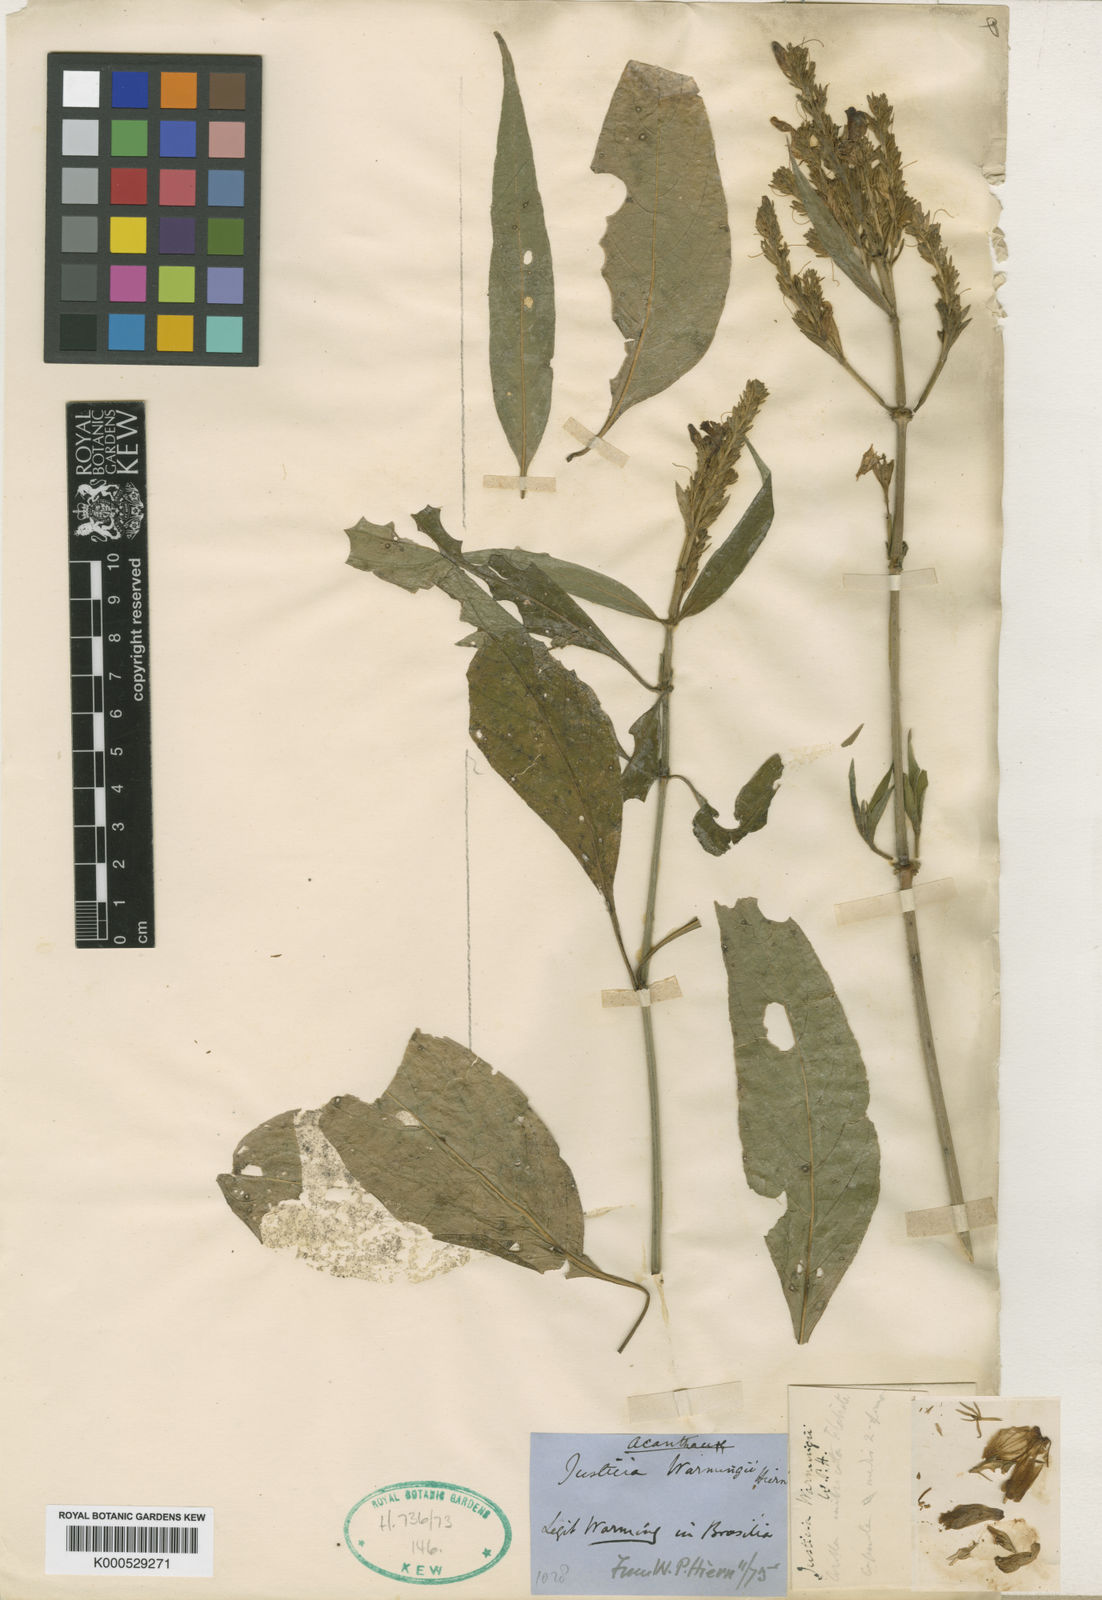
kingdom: Plantae
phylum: Tracheophyta
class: Magnoliopsida
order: Lamiales
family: Acanthaceae
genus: Justicia
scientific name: Justicia warmingii
